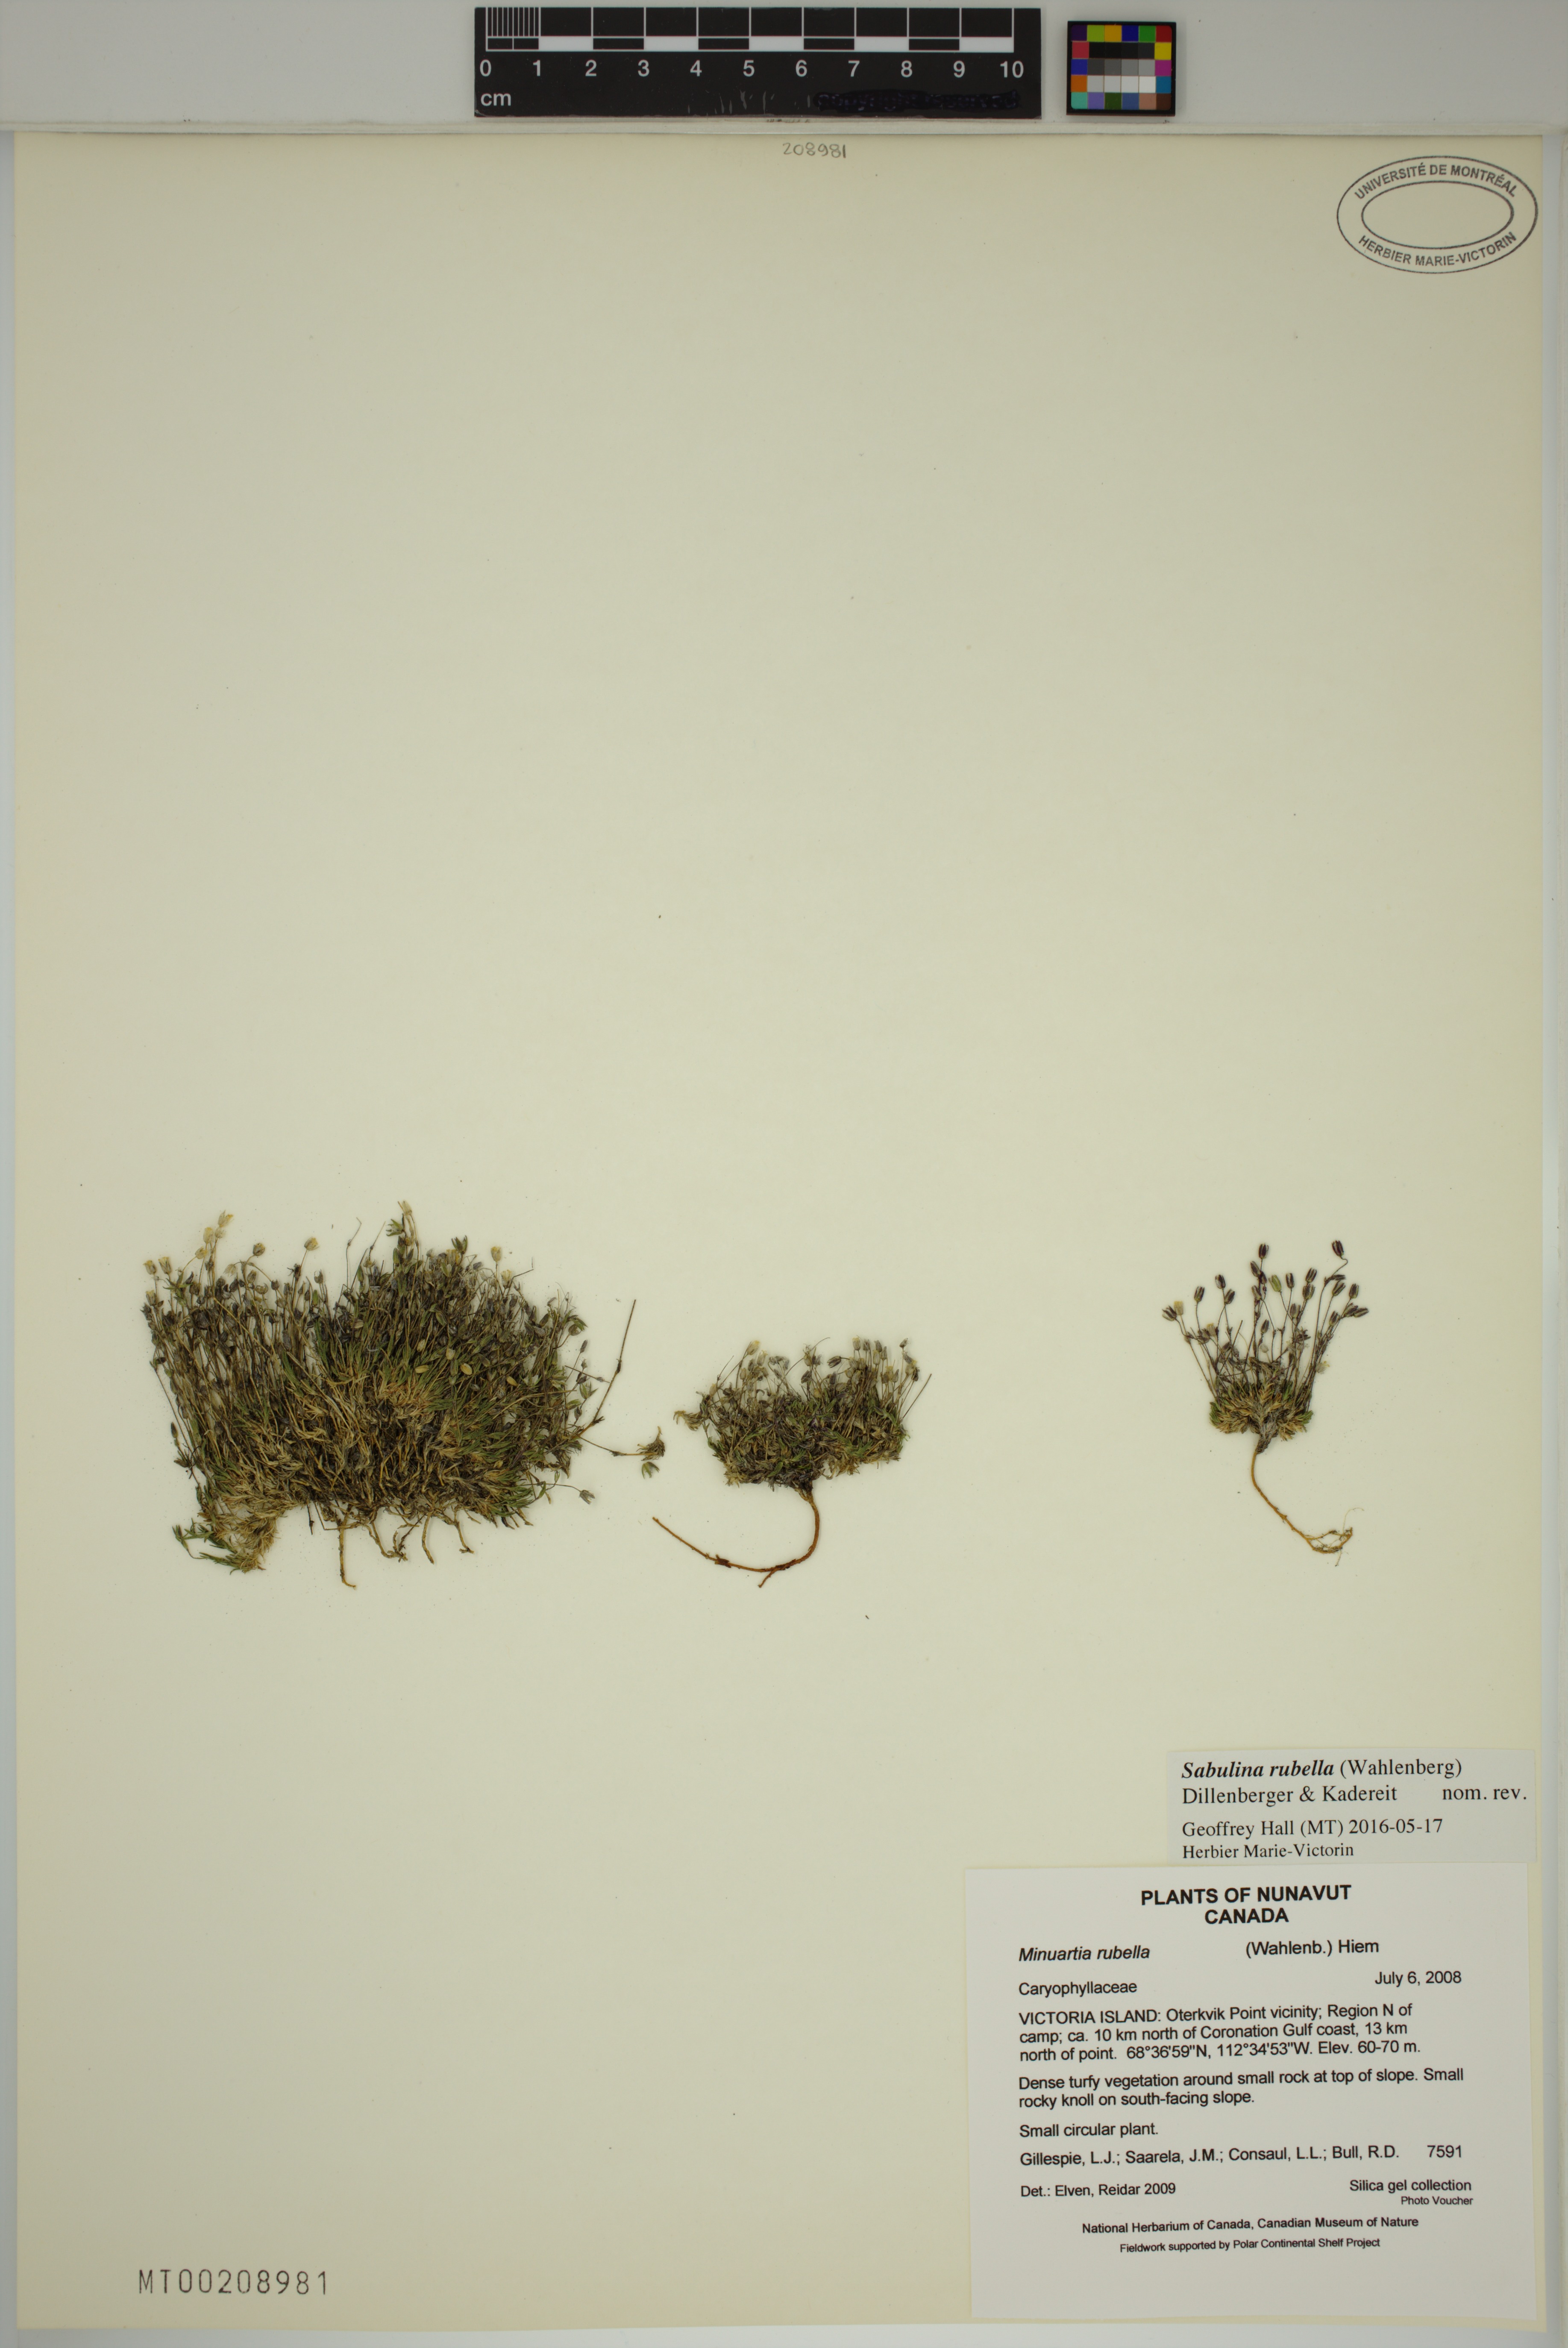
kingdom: Plantae
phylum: Tracheophyta
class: Magnoliopsida
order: Caryophyllales
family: Caryophyllaceae
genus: Sabulina
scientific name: Sabulina rubella
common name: Beautiful sandwort
